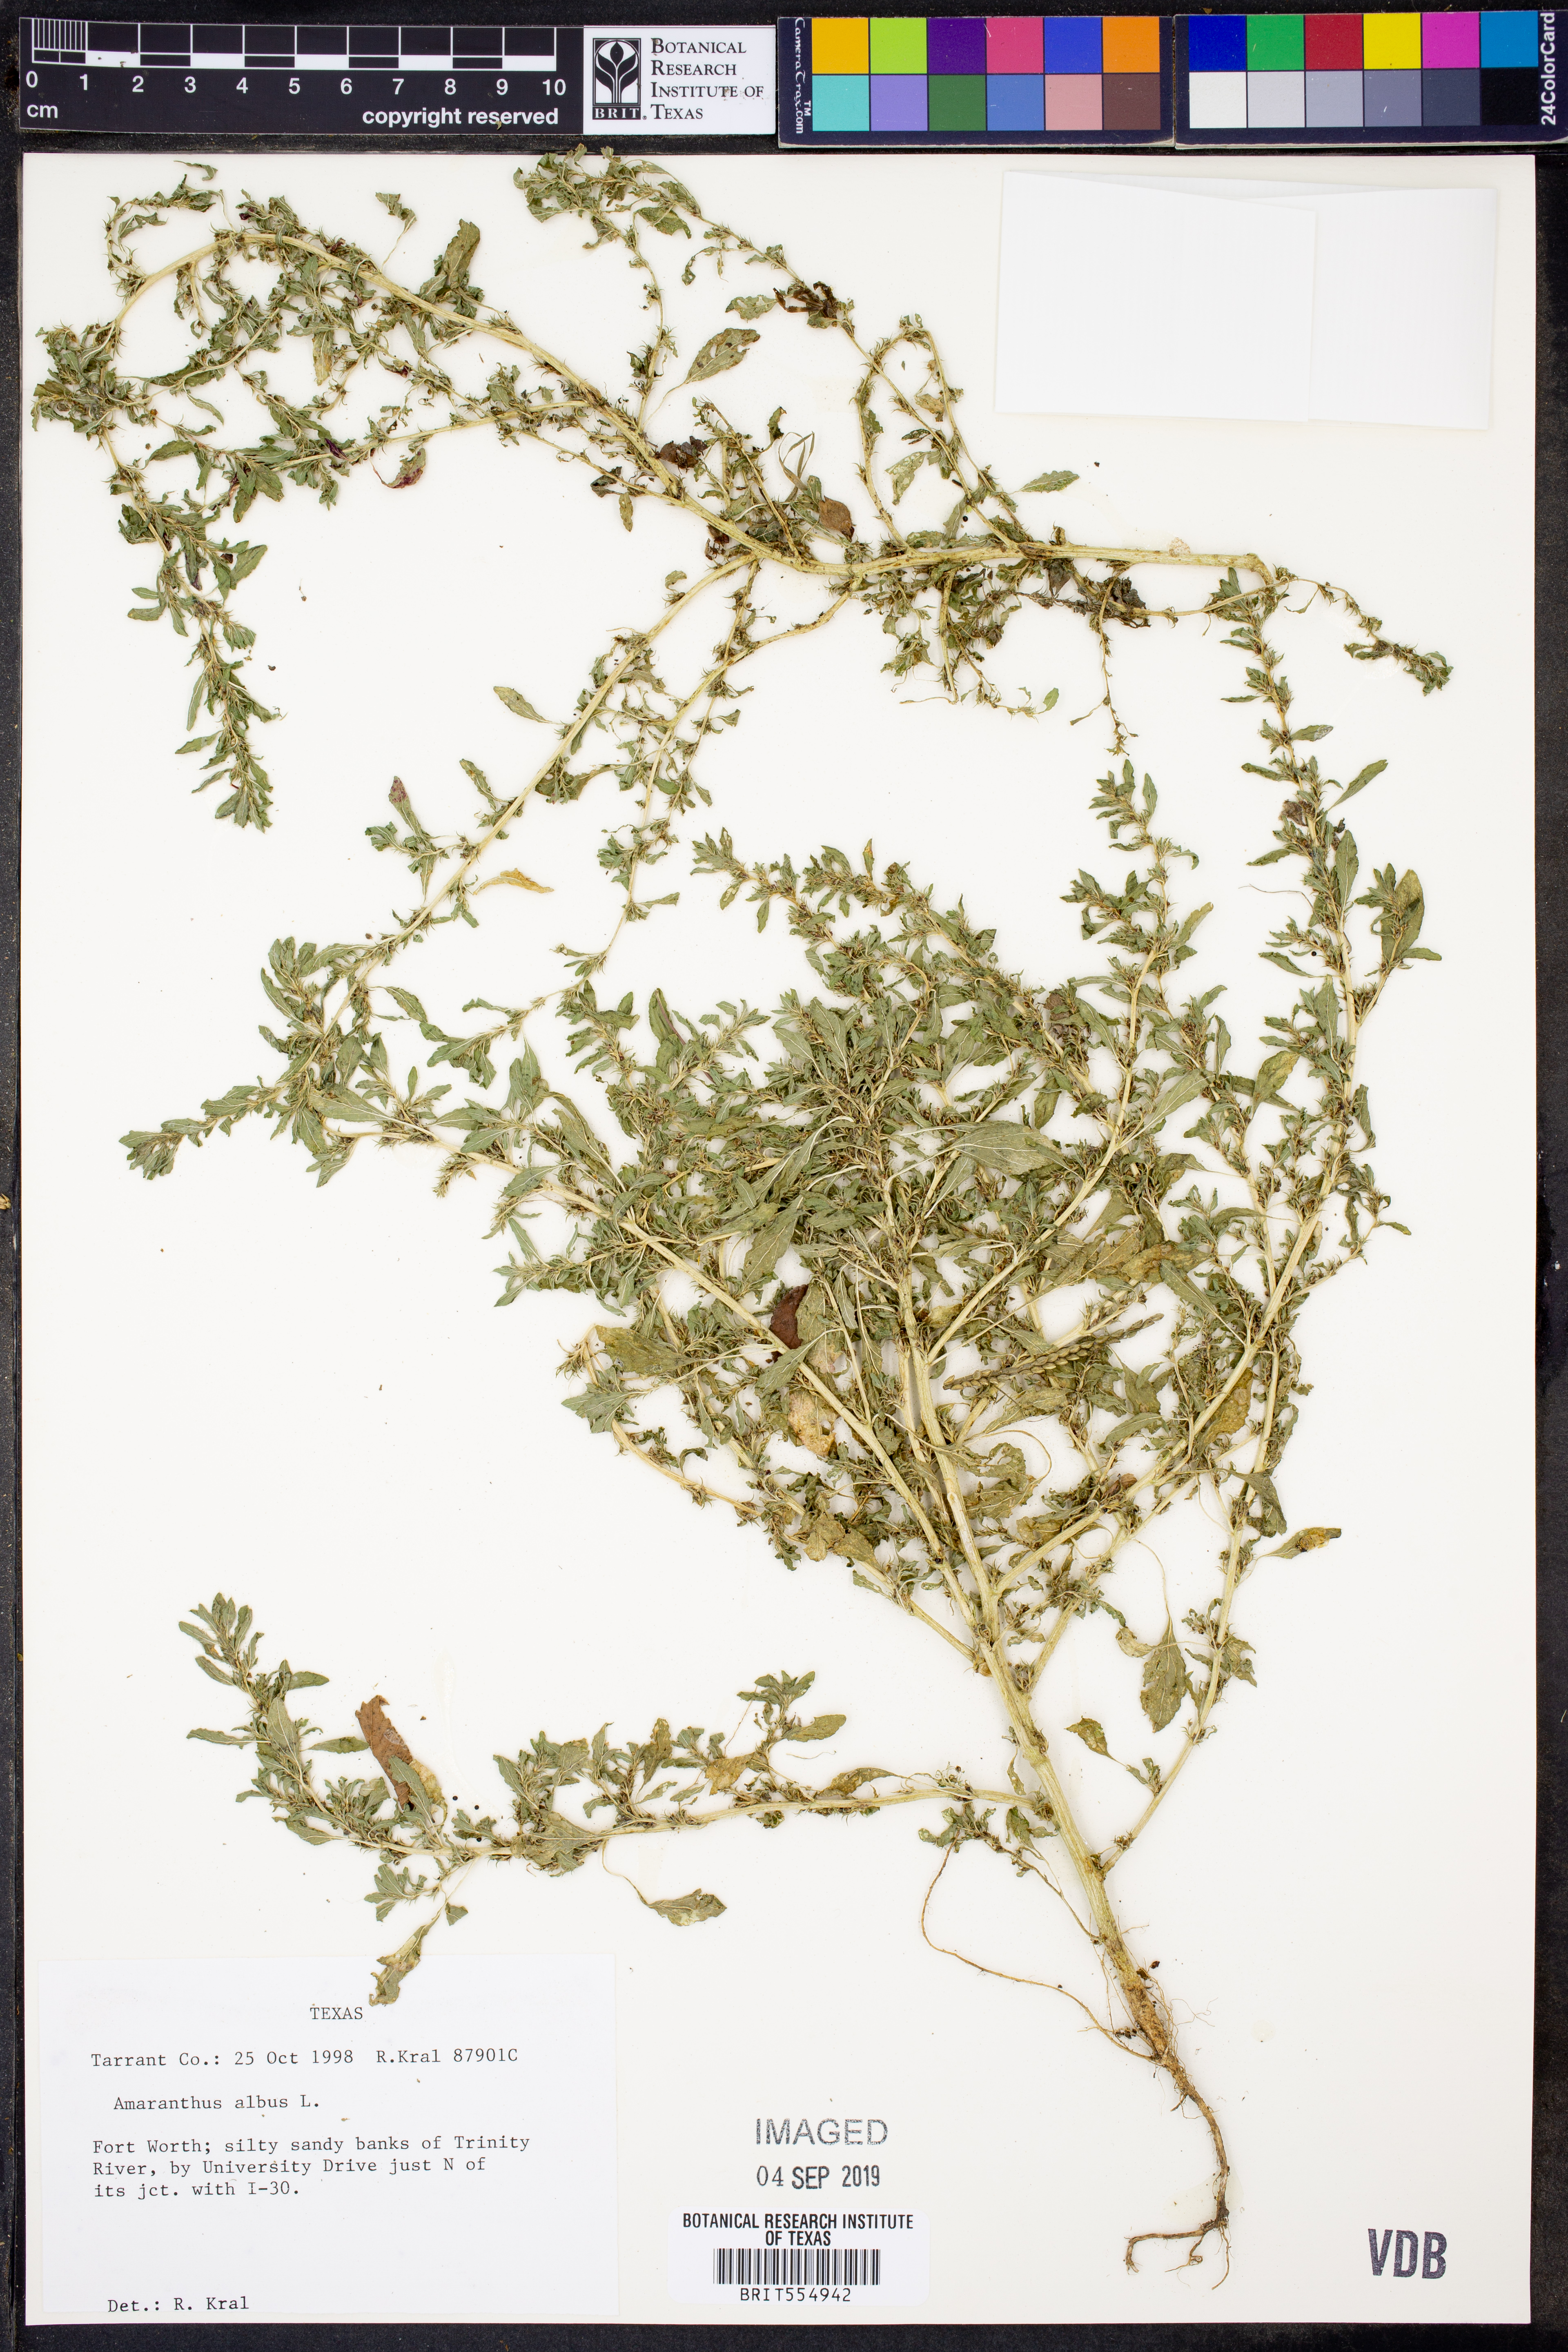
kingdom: Plantae
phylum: Tracheophyta
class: Magnoliopsida
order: Caryophyllales
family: Amaranthaceae
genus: Amaranthus
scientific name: Amaranthus albus
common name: White pigweed
